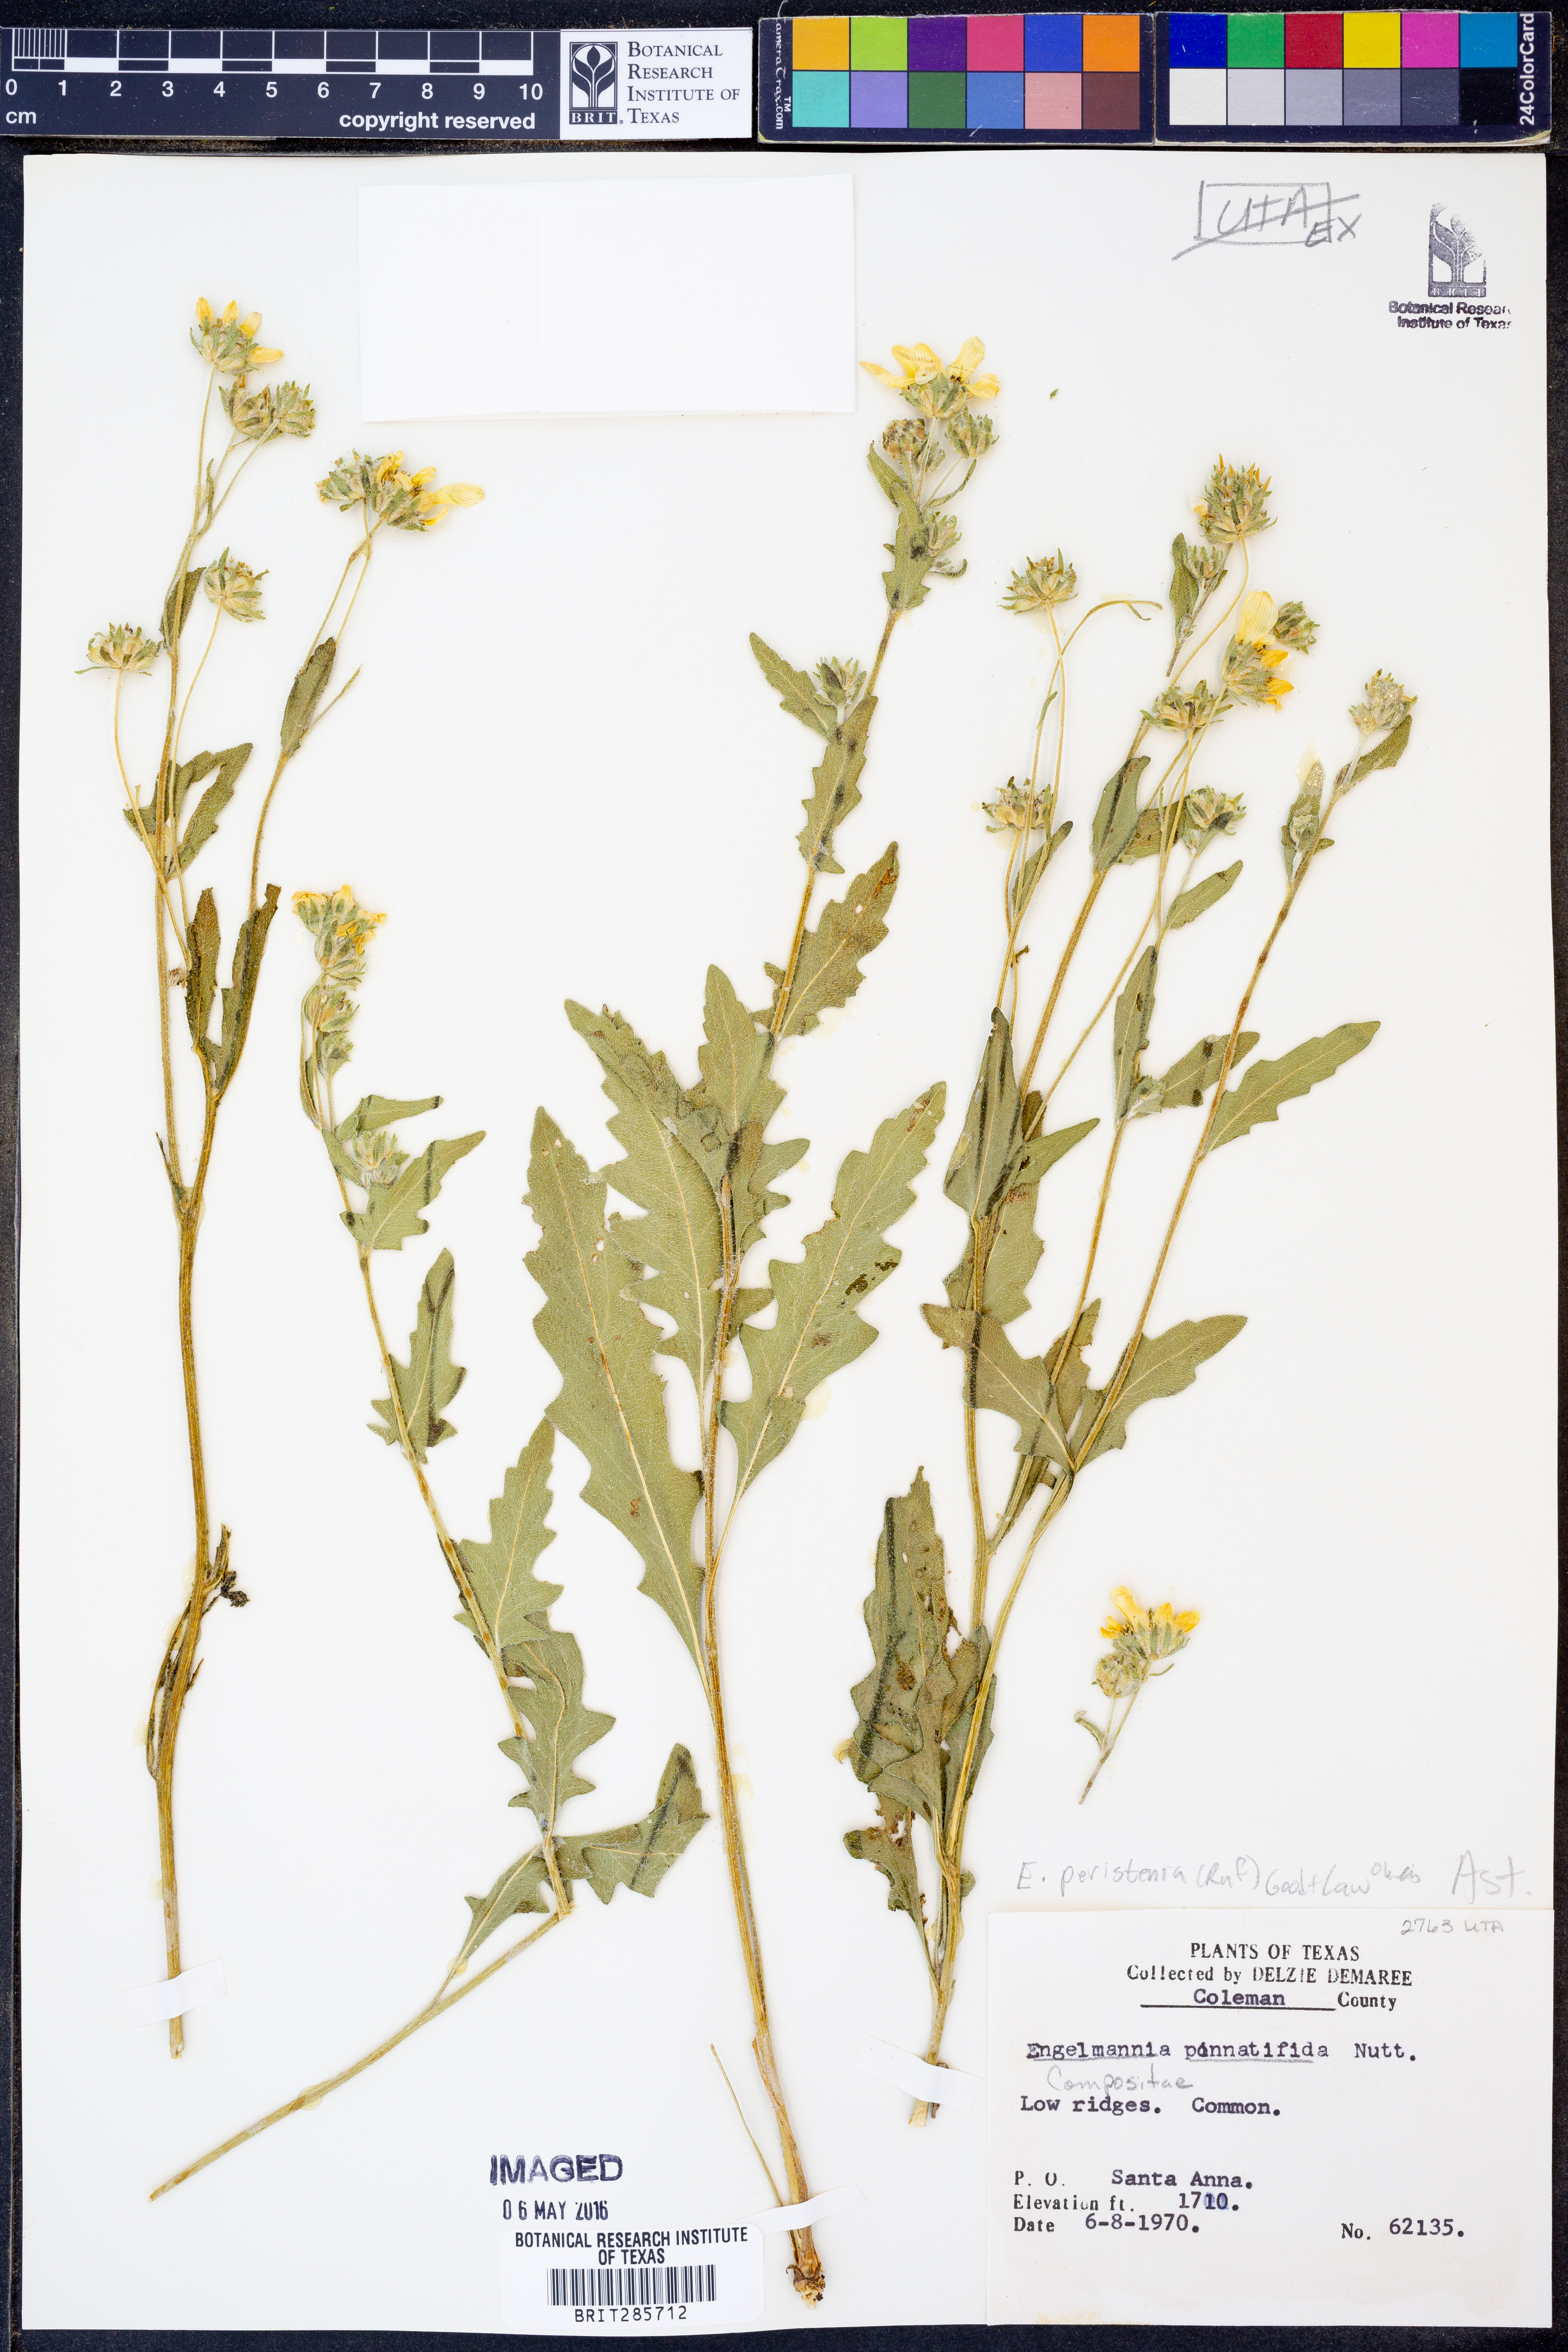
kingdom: Plantae
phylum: Tracheophyta
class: Magnoliopsida
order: Asterales
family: Asteraceae
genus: Engelmannia
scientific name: Engelmannia peristenia
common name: Engelmann's daisy
